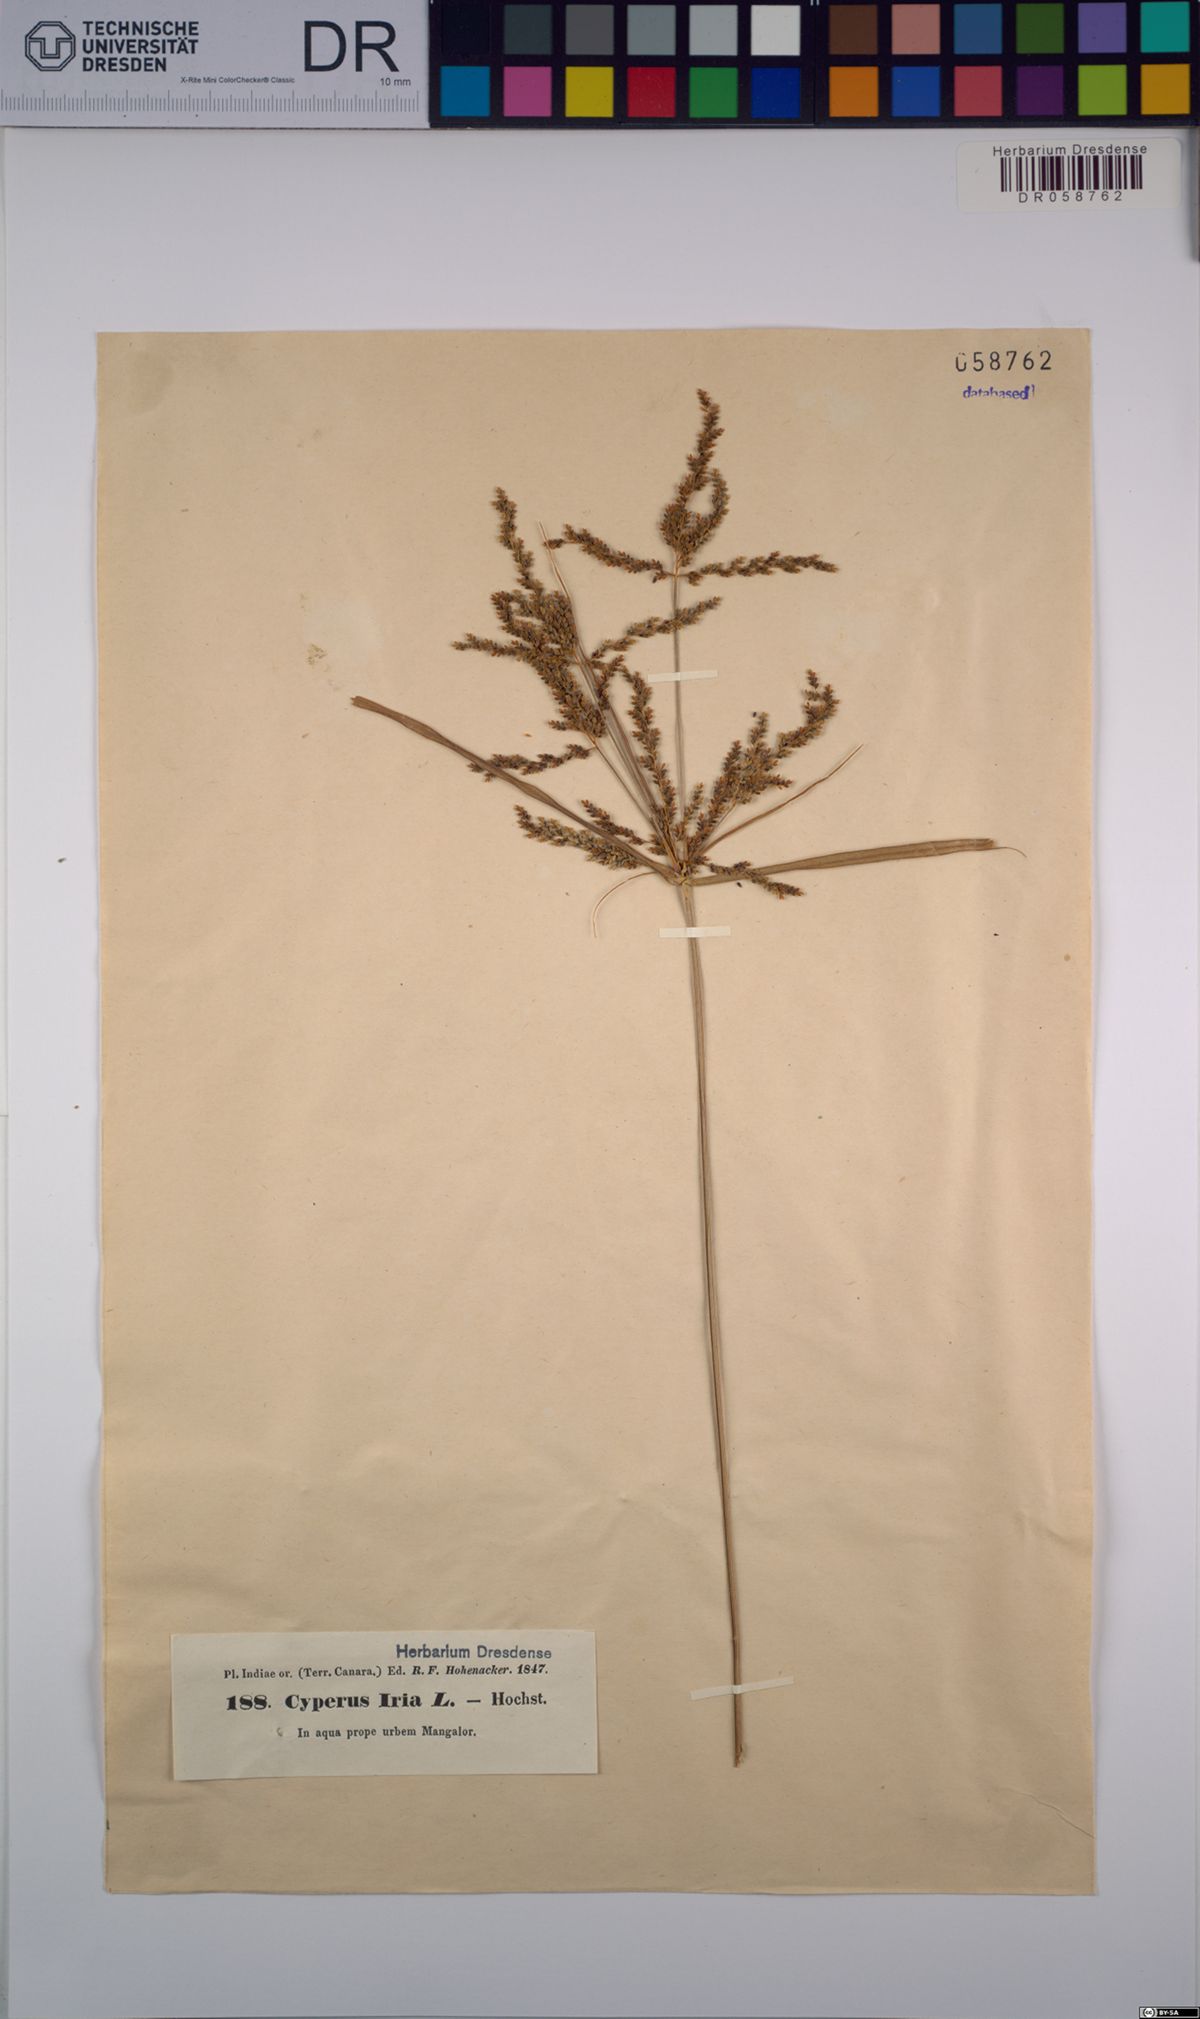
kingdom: Plantae
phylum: Tracheophyta
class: Liliopsida
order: Poales
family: Cyperaceae
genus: Cyperus
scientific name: Cyperus iria
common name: Ricefield flatsedge
